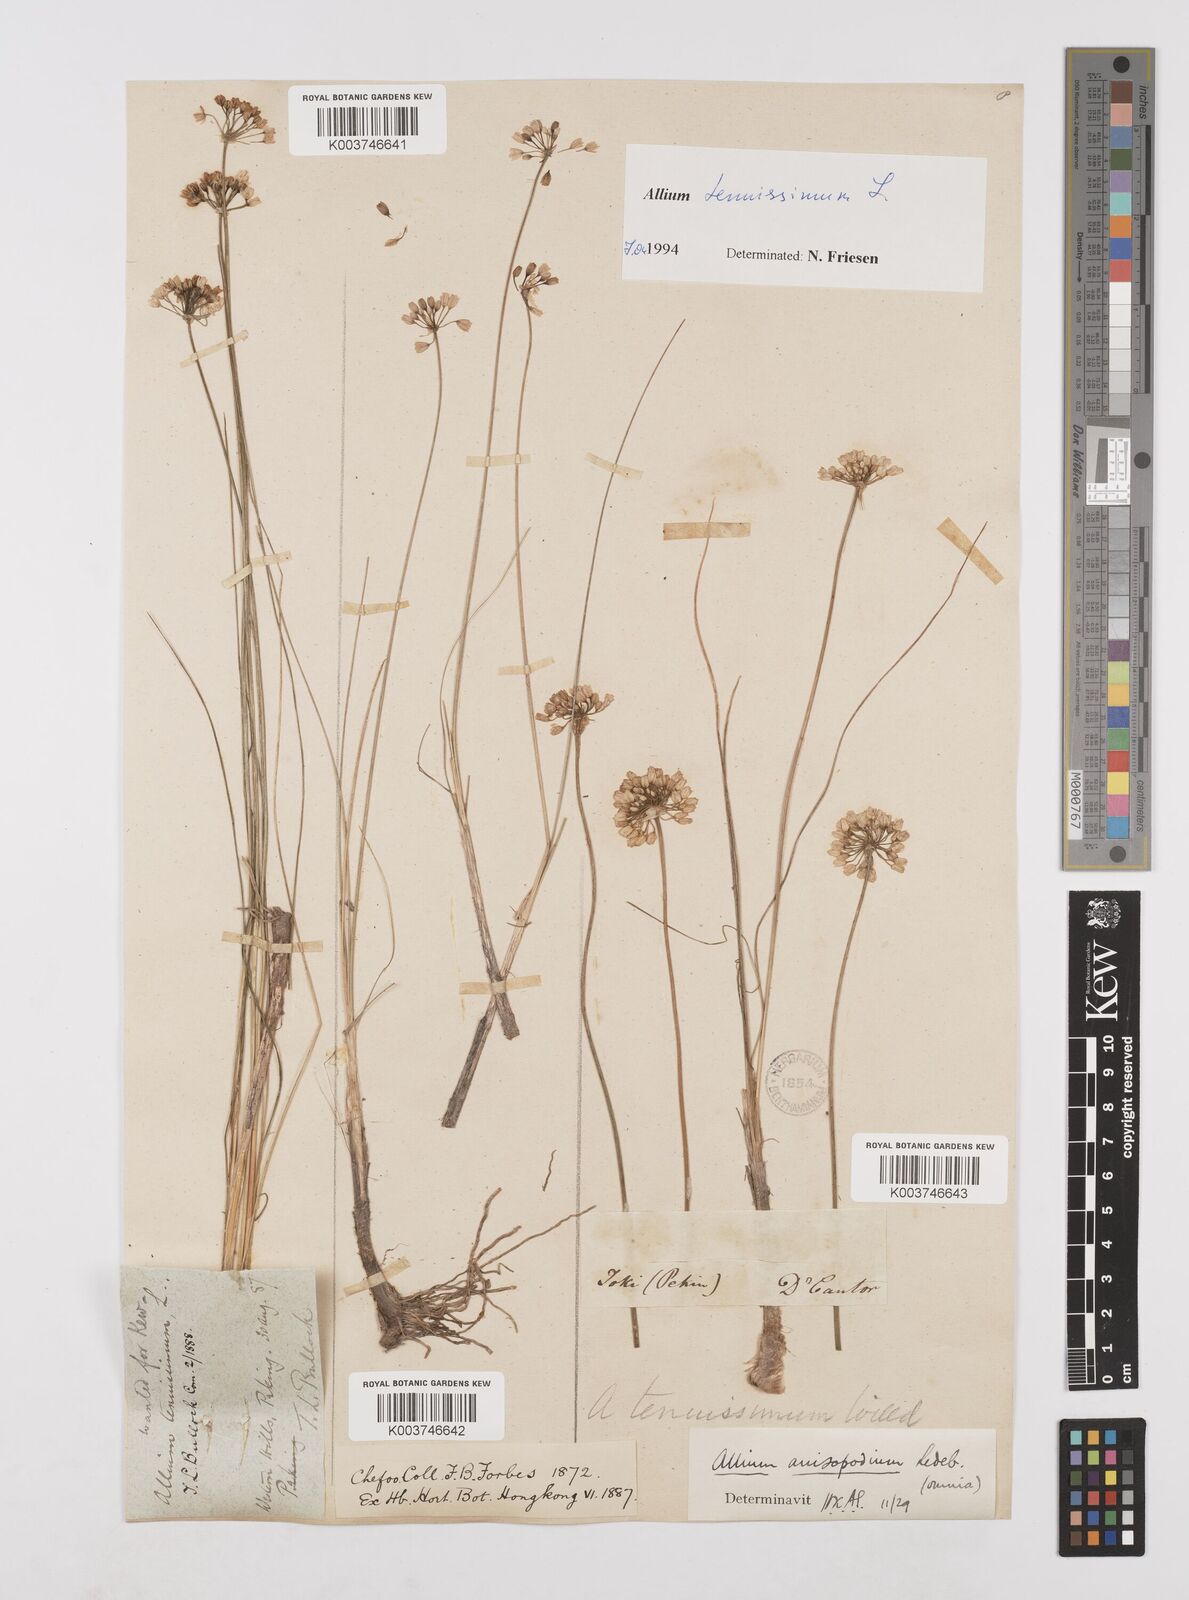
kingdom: Plantae
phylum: Tracheophyta
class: Liliopsida
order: Asparagales
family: Amaryllidaceae
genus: Allium
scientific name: Allium tenuissimum
